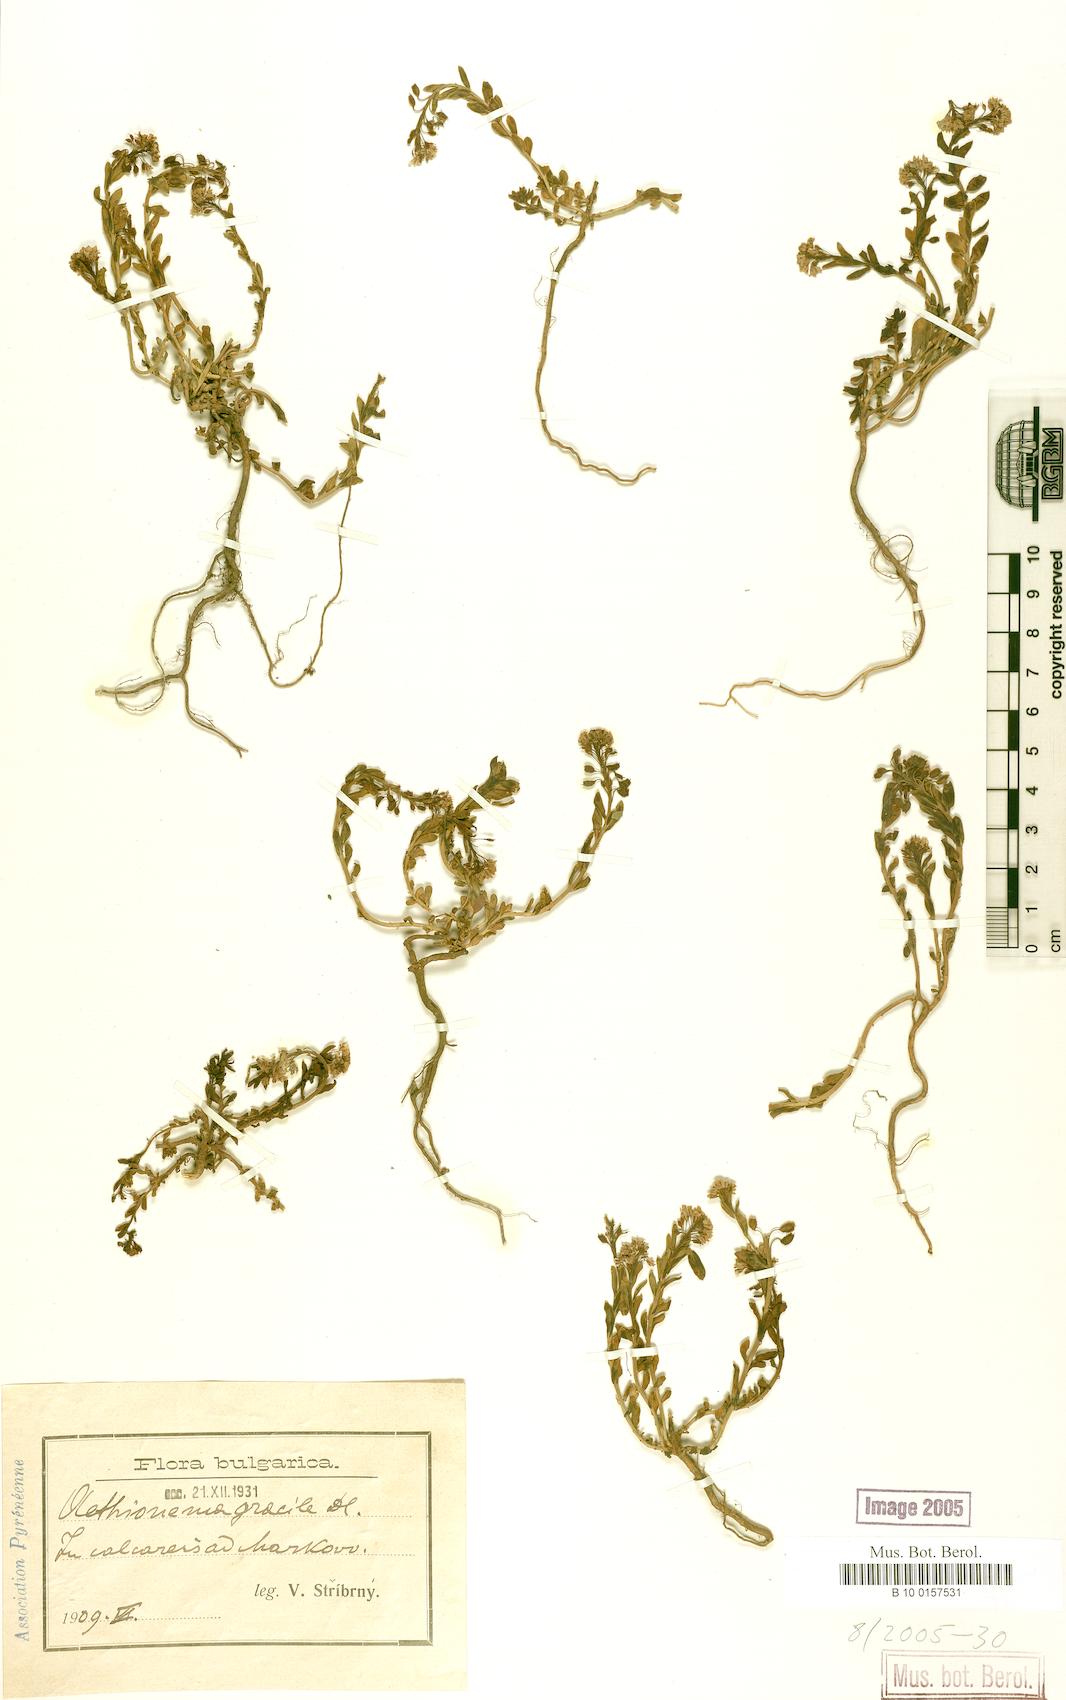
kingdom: Plantae
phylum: Tracheophyta
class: Magnoliopsida
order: Brassicales
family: Brassicaceae
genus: Aethionema
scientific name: Aethionema saxatile
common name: Burnt candytuft
